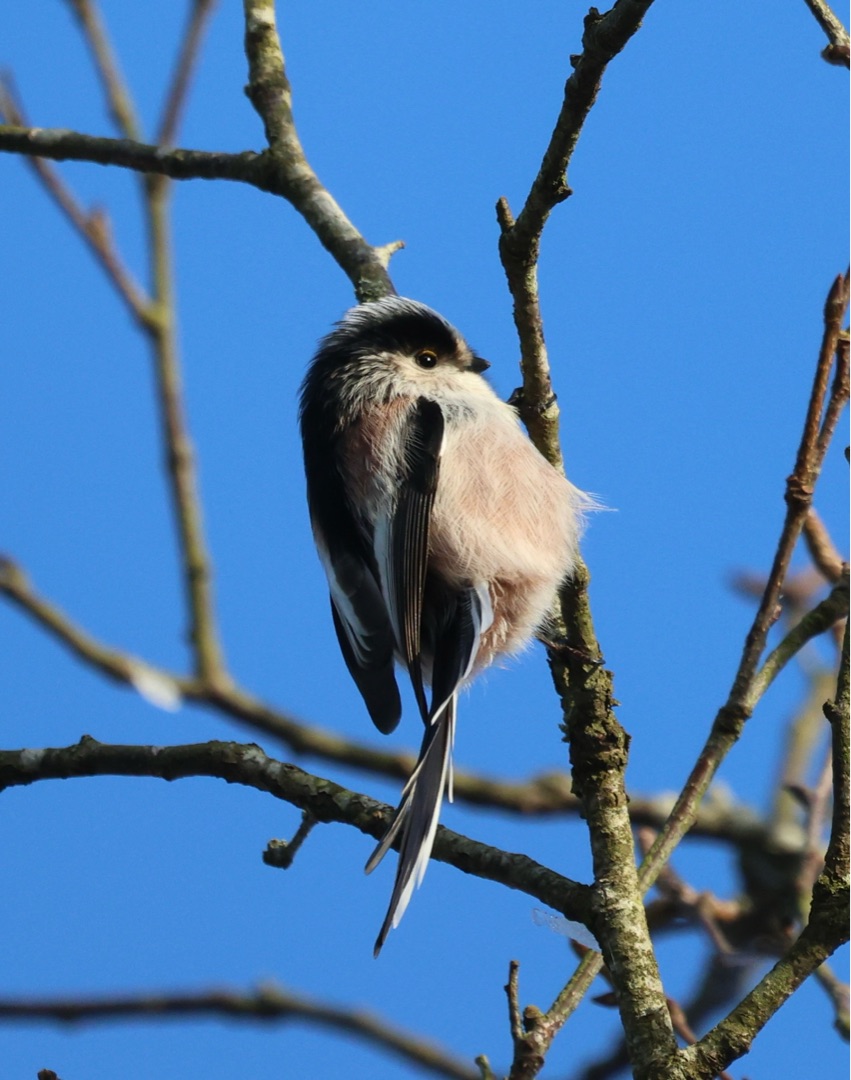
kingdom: Animalia
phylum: Chordata
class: Aves
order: Passeriformes
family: Aegithalidae
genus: Aegithalos
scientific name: Aegithalos caudatus
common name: Sydlig halemejse
